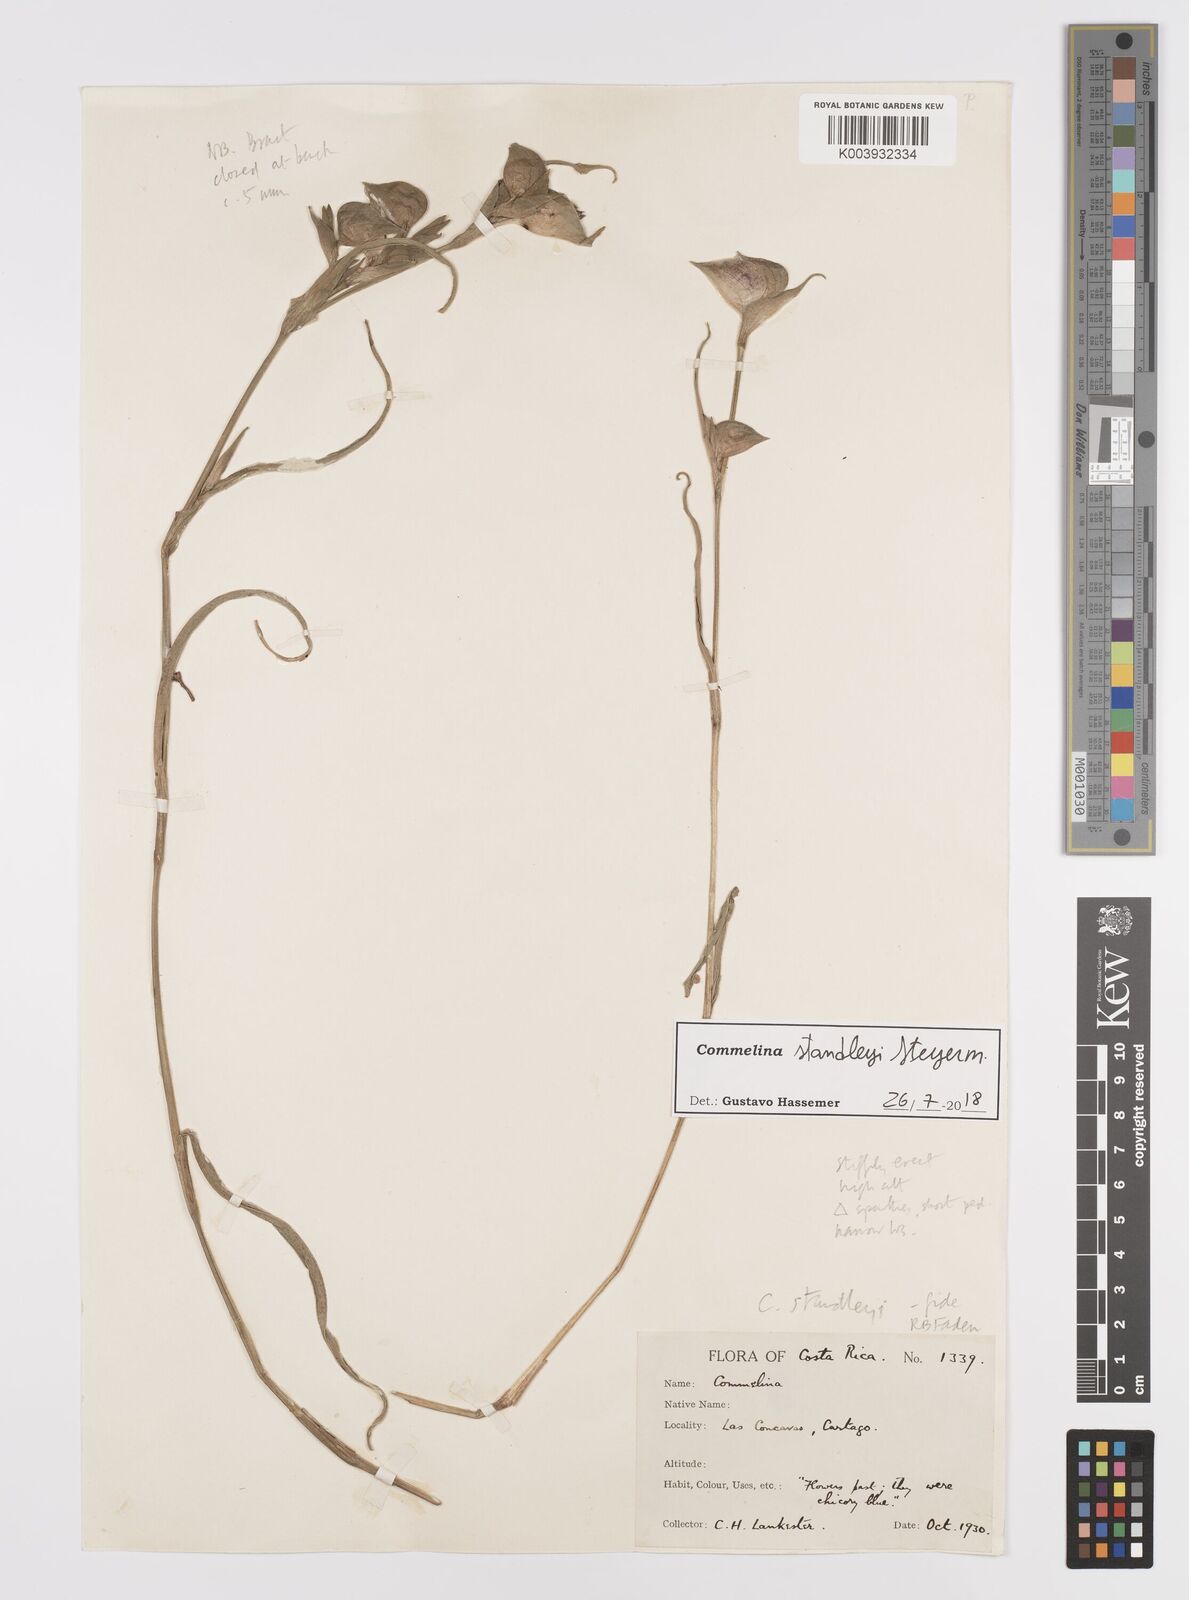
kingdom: Plantae
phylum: Tracheophyta
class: Liliopsida
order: Commelinales
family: Commelinaceae
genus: Commelina
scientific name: Commelina standleyi
